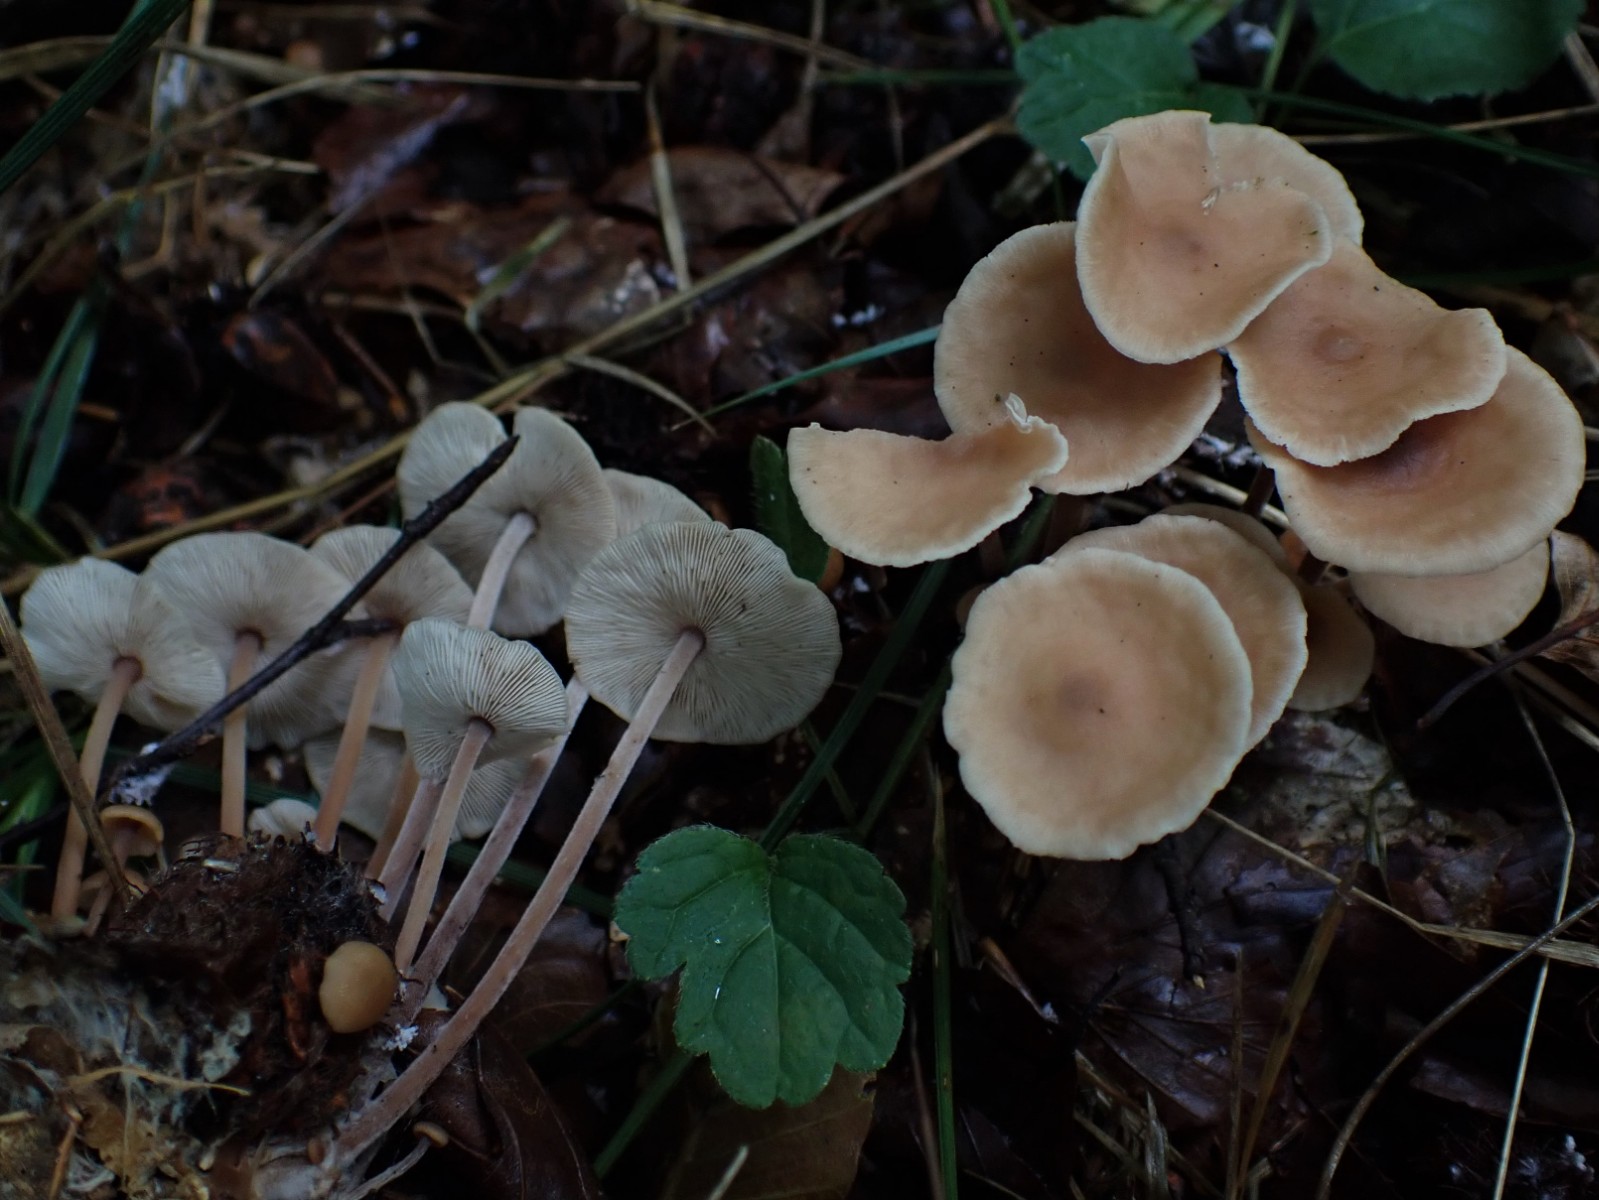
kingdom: Fungi
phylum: Basidiomycota
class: Agaricomycetes
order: Agaricales
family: Omphalotaceae
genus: Collybiopsis
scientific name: Collybiopsis confluens
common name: knippe-fladhat
